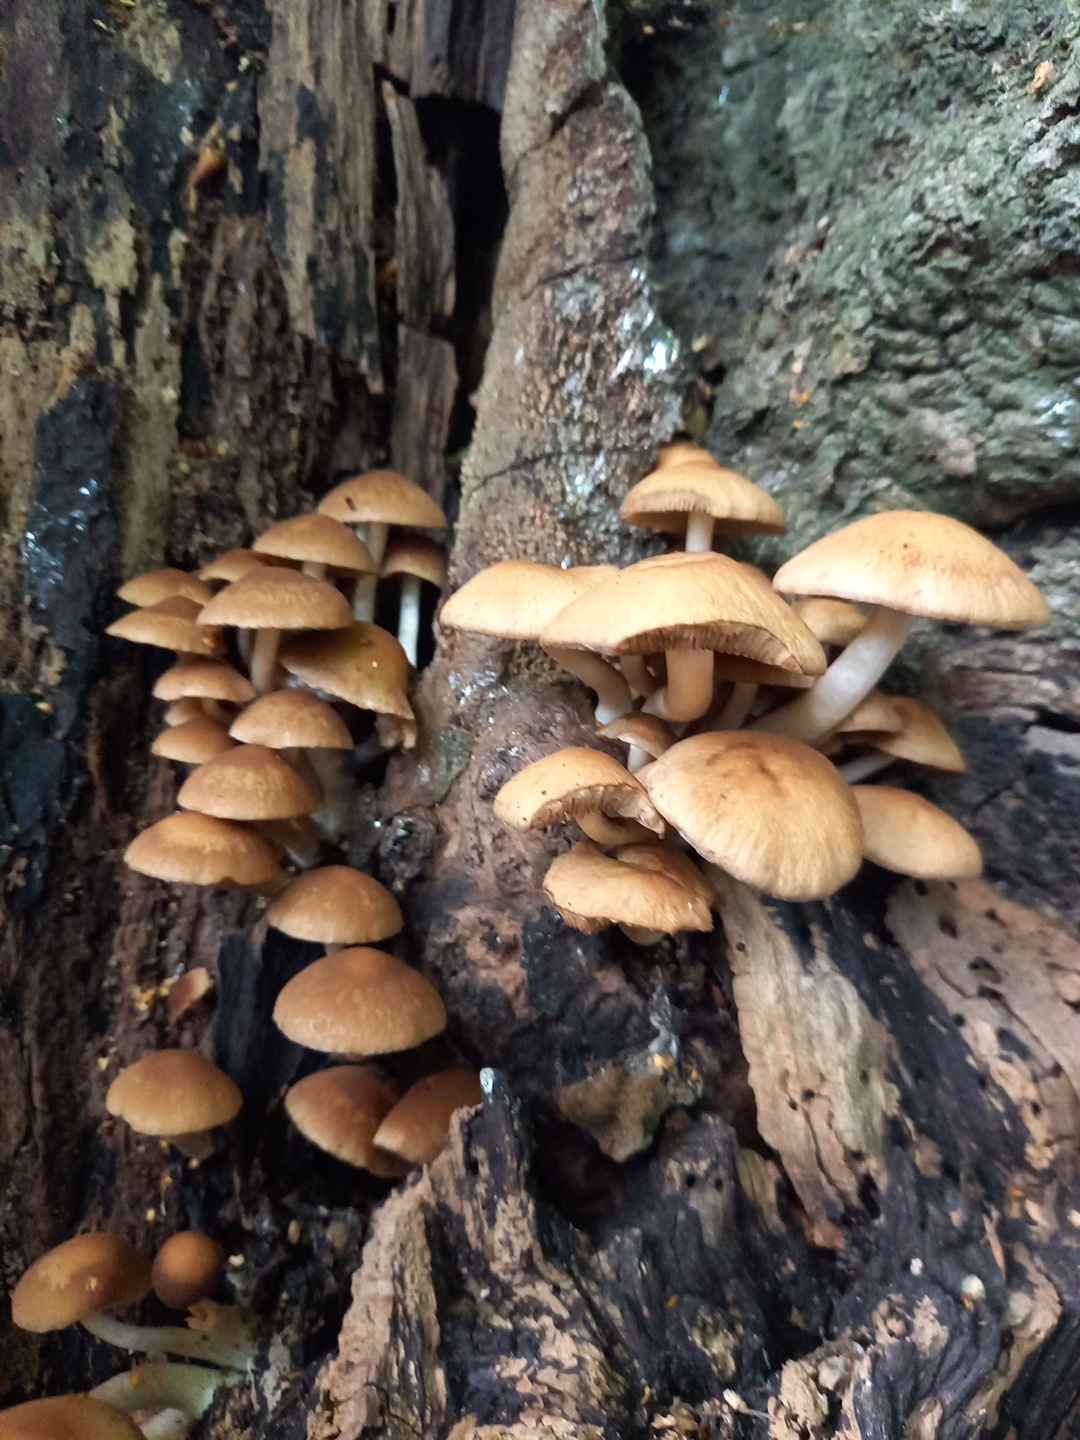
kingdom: Fungi
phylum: Basidiomycota
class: Agaricomycetes
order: Agaricales
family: Psathyrellaceae
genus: Psathyrella
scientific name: Psathyrella piluliformis
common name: lysstokket mørkhat
